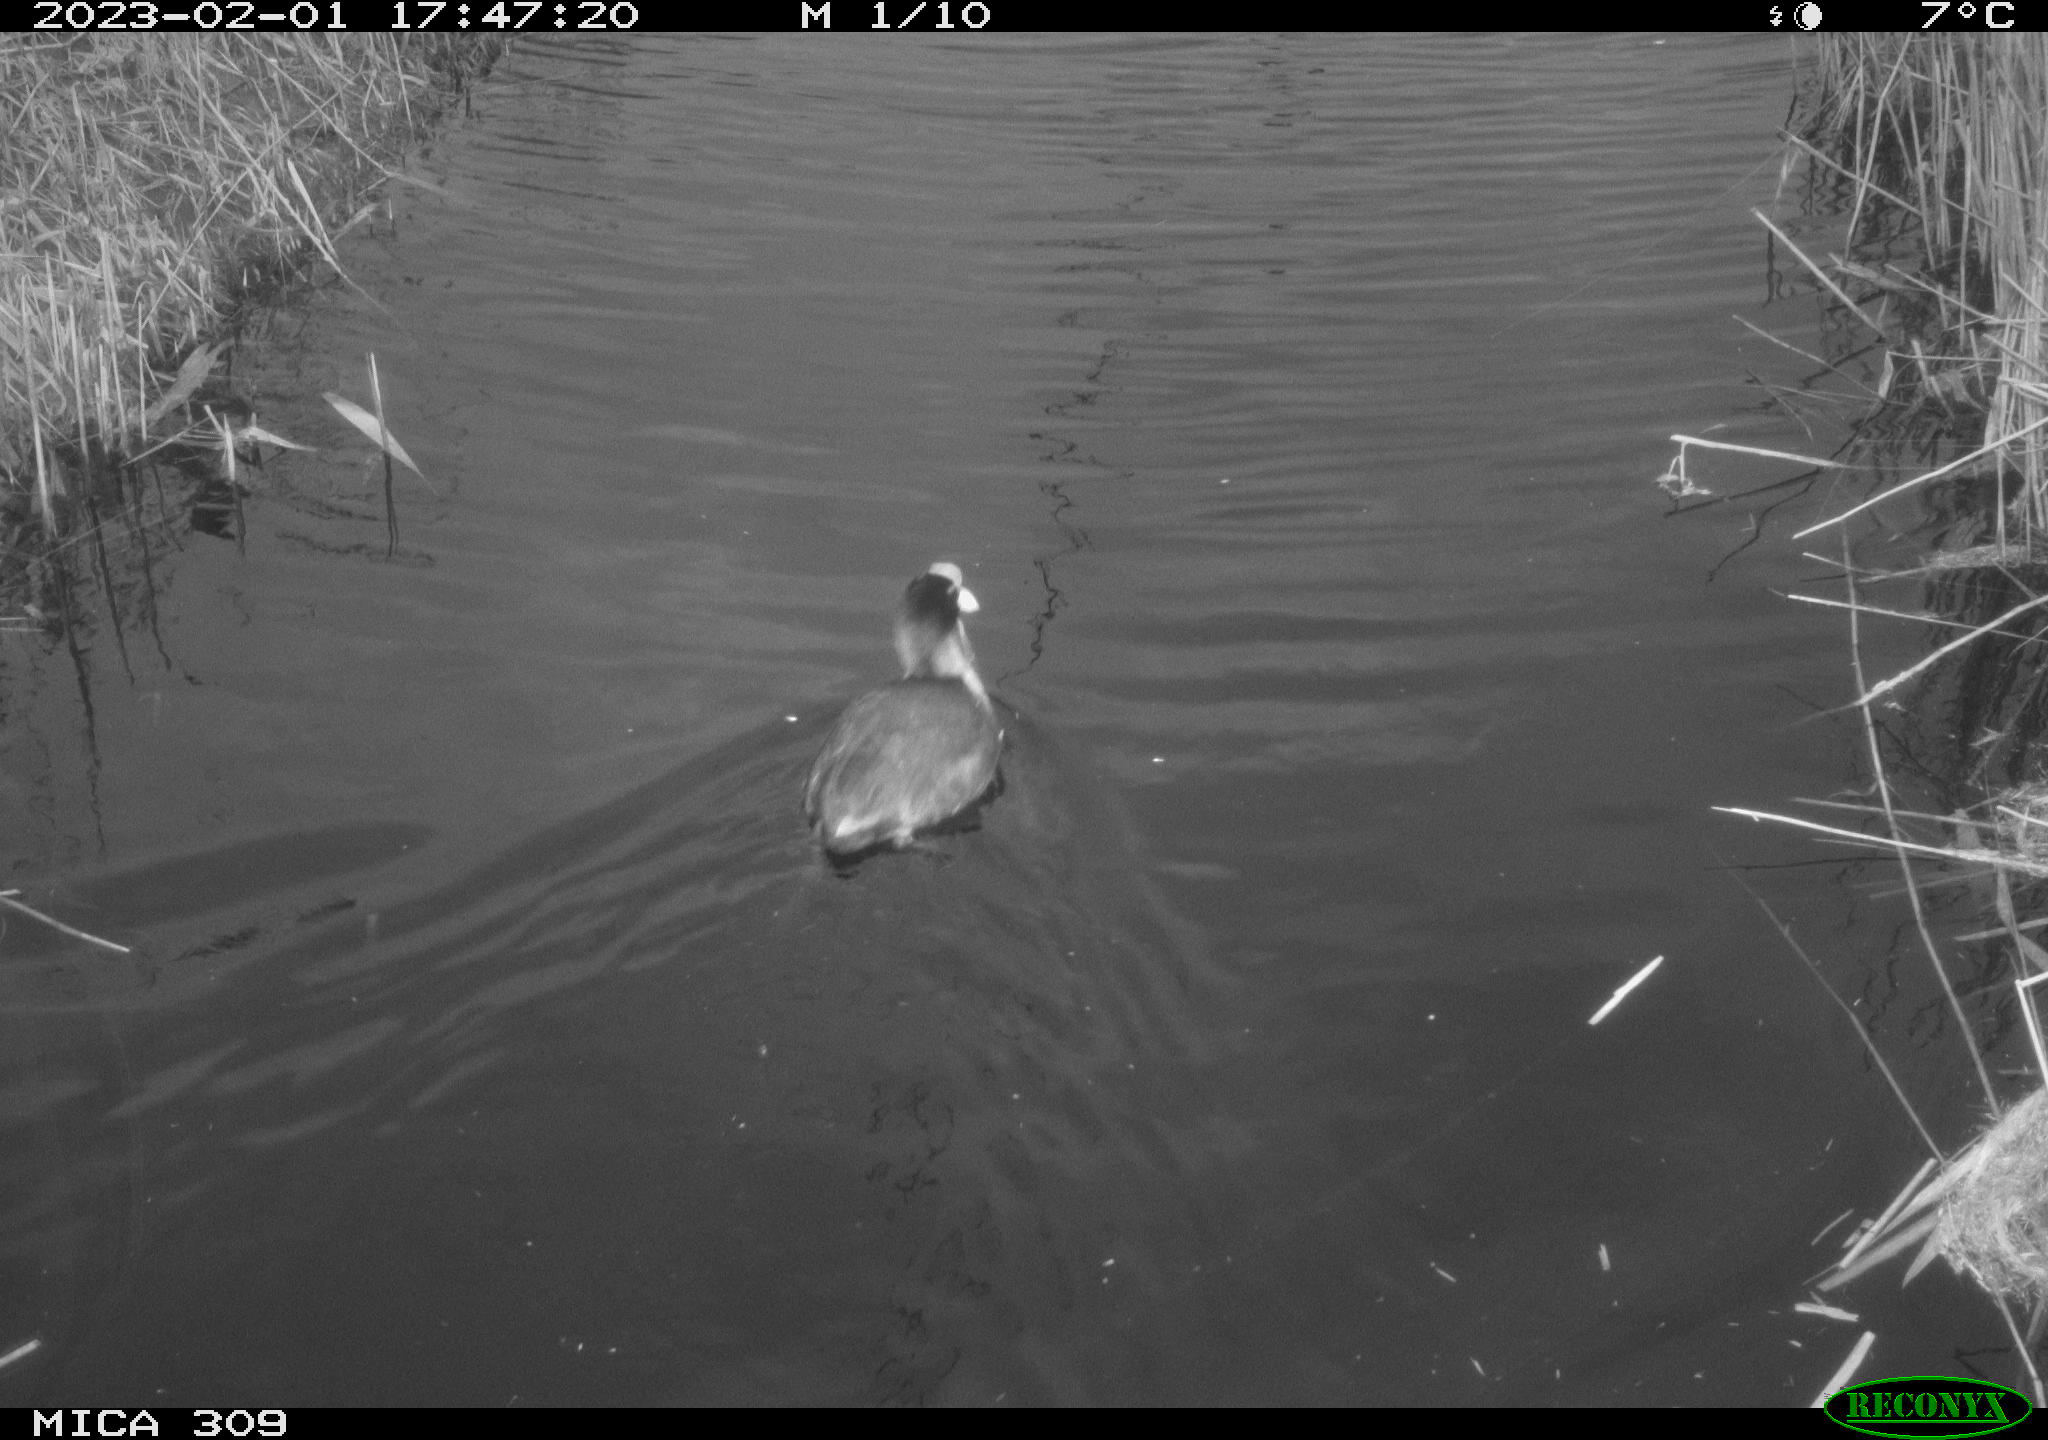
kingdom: Animalia
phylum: Chordata
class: Aves
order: Gruiformes
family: Rallidae
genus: Fulica
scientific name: Fulica atra
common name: Eurasian coot
